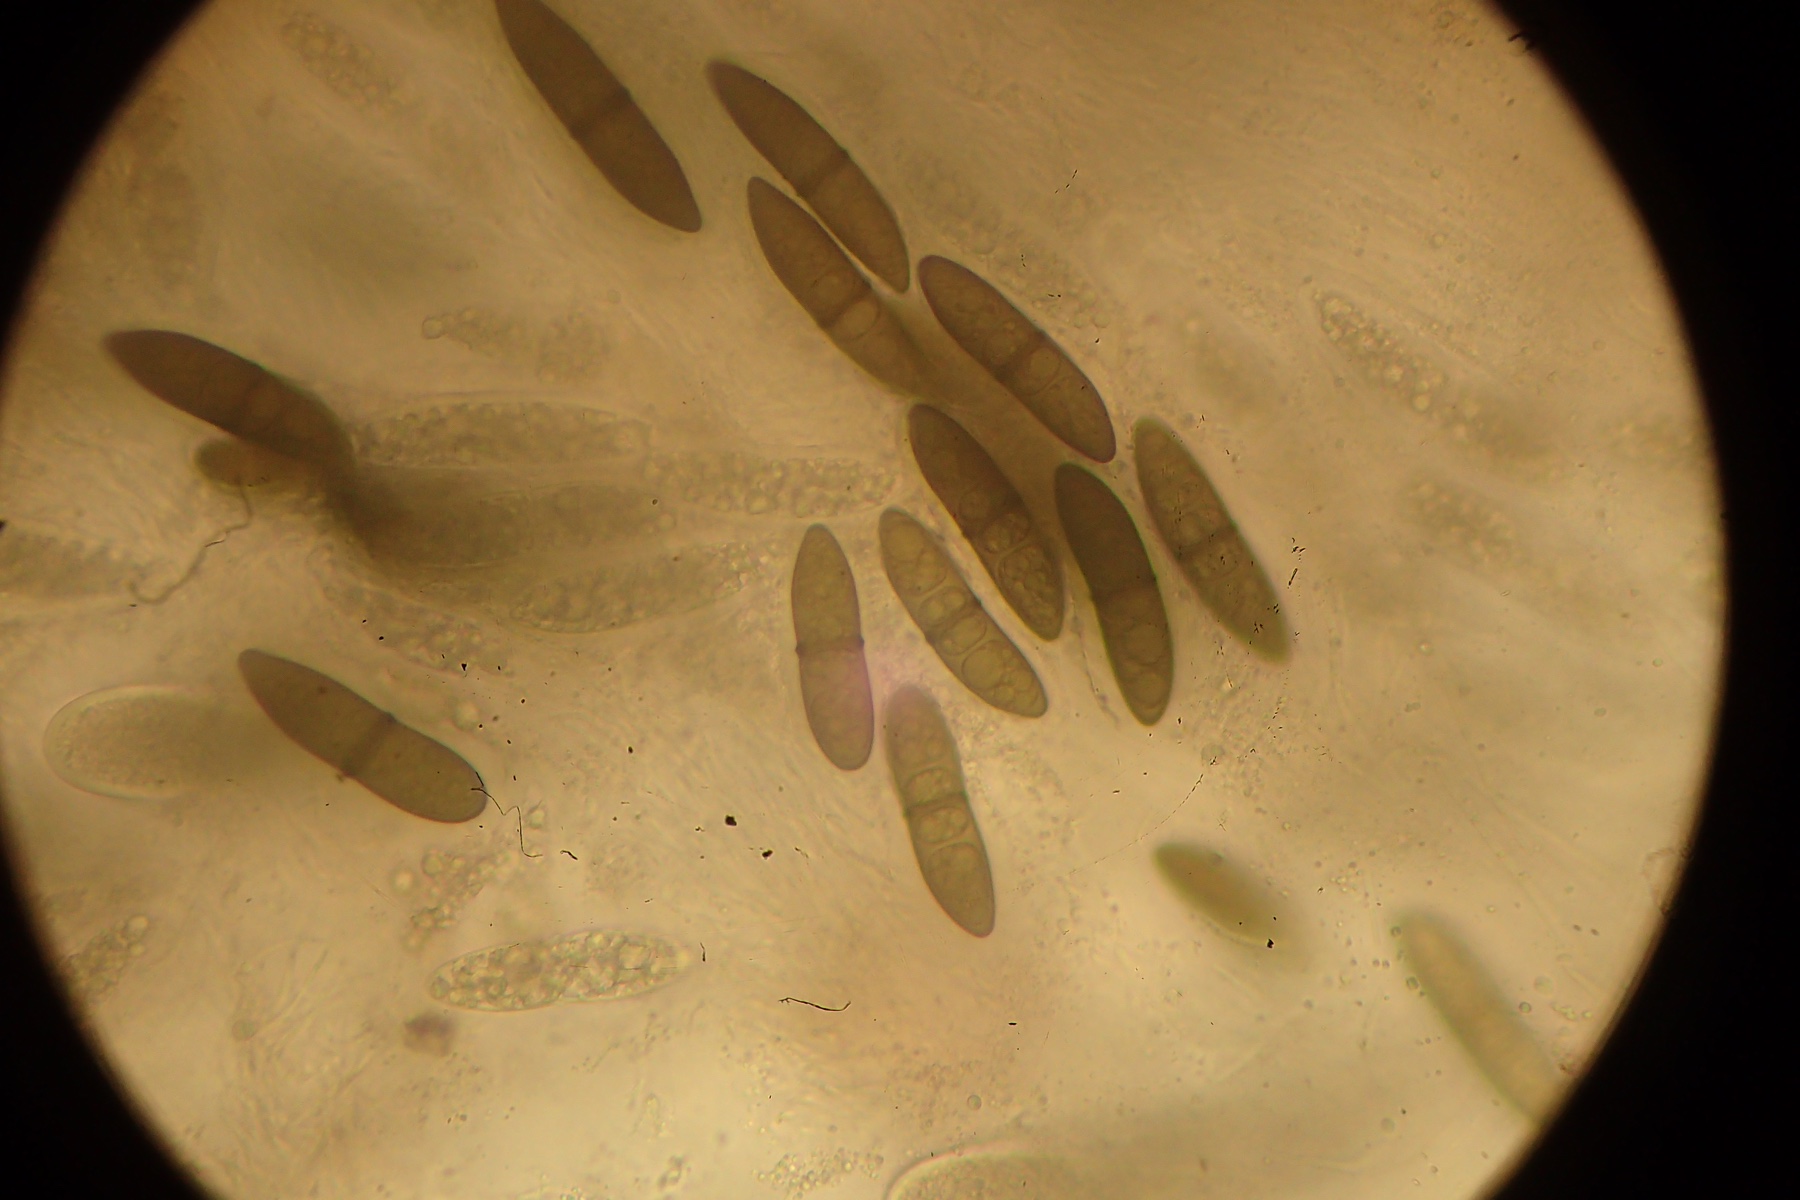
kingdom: Fungi
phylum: Ascomycota
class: Dothideomycetes
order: Pleosporales
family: Massariaceae
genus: Massaria
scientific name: Massaria inquinans
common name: ahorn-kulvulkan
